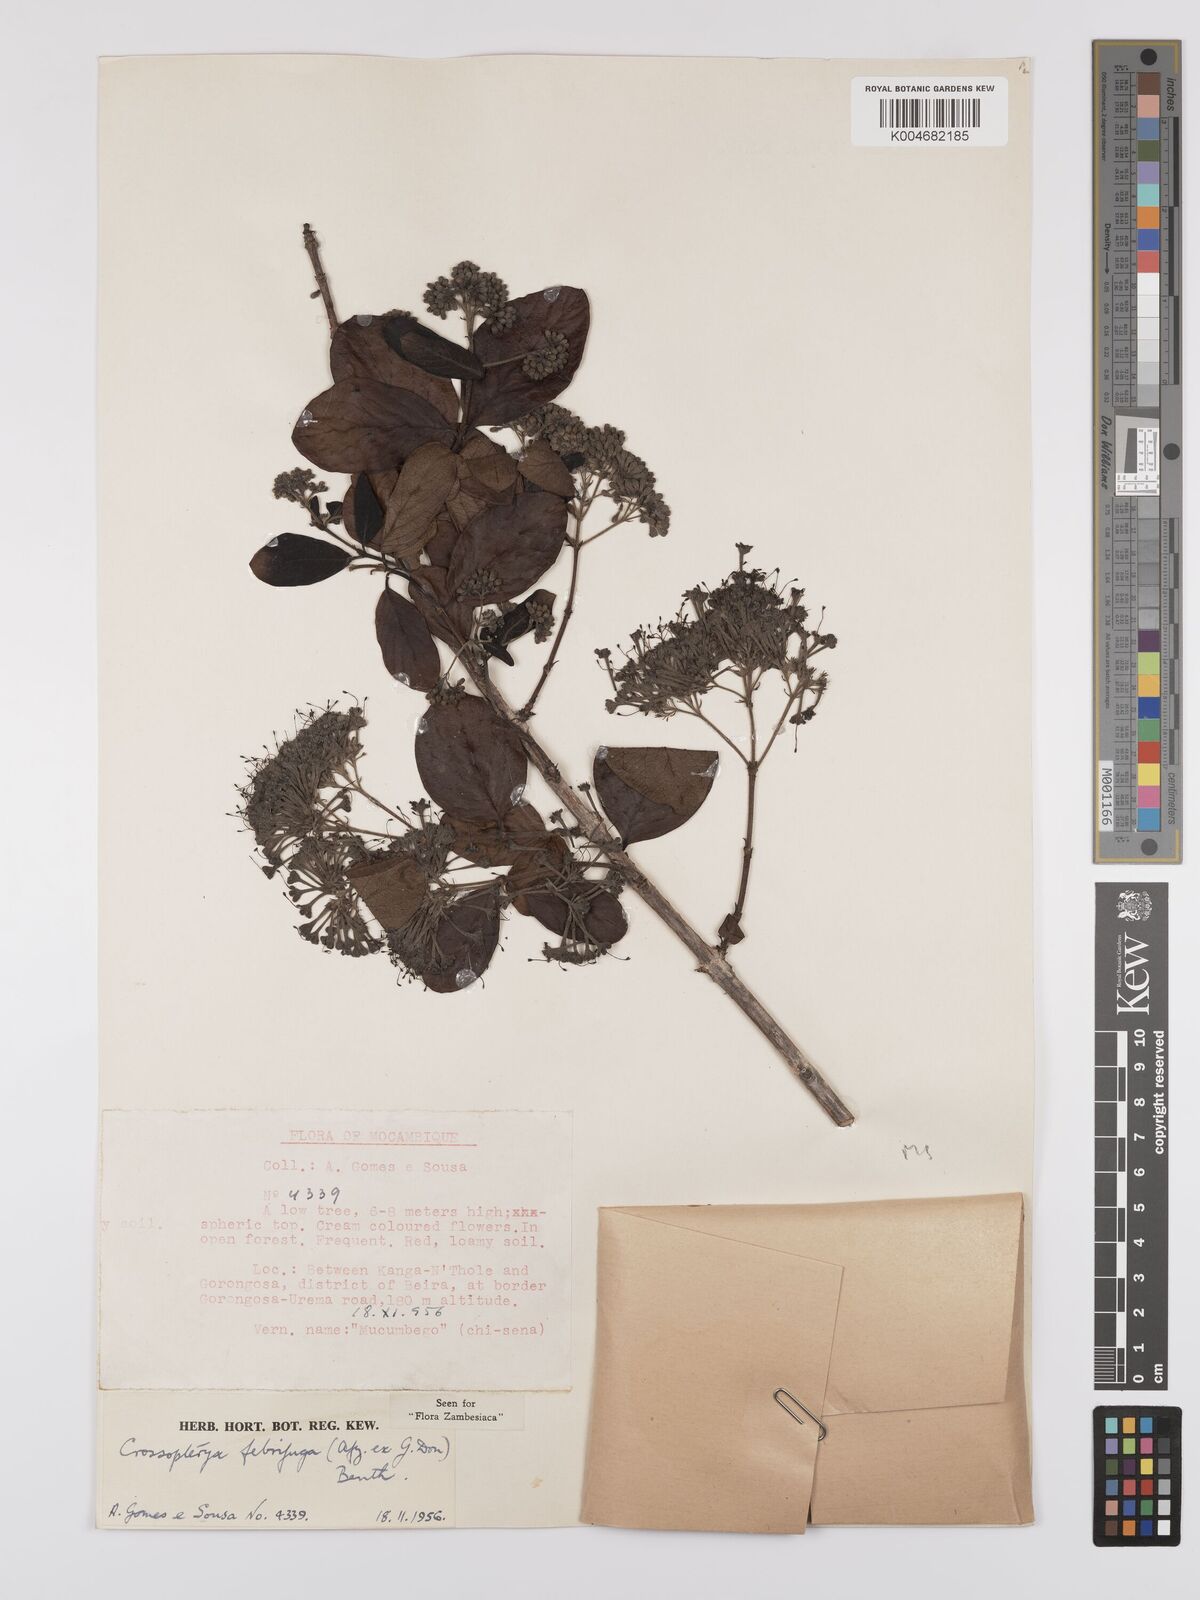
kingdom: Plantae
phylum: Tracheophyta
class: Magnoliopsida
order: Gentianales
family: Rubiaceae
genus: Crossopteryx
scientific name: Crossopteryx febrifuga
